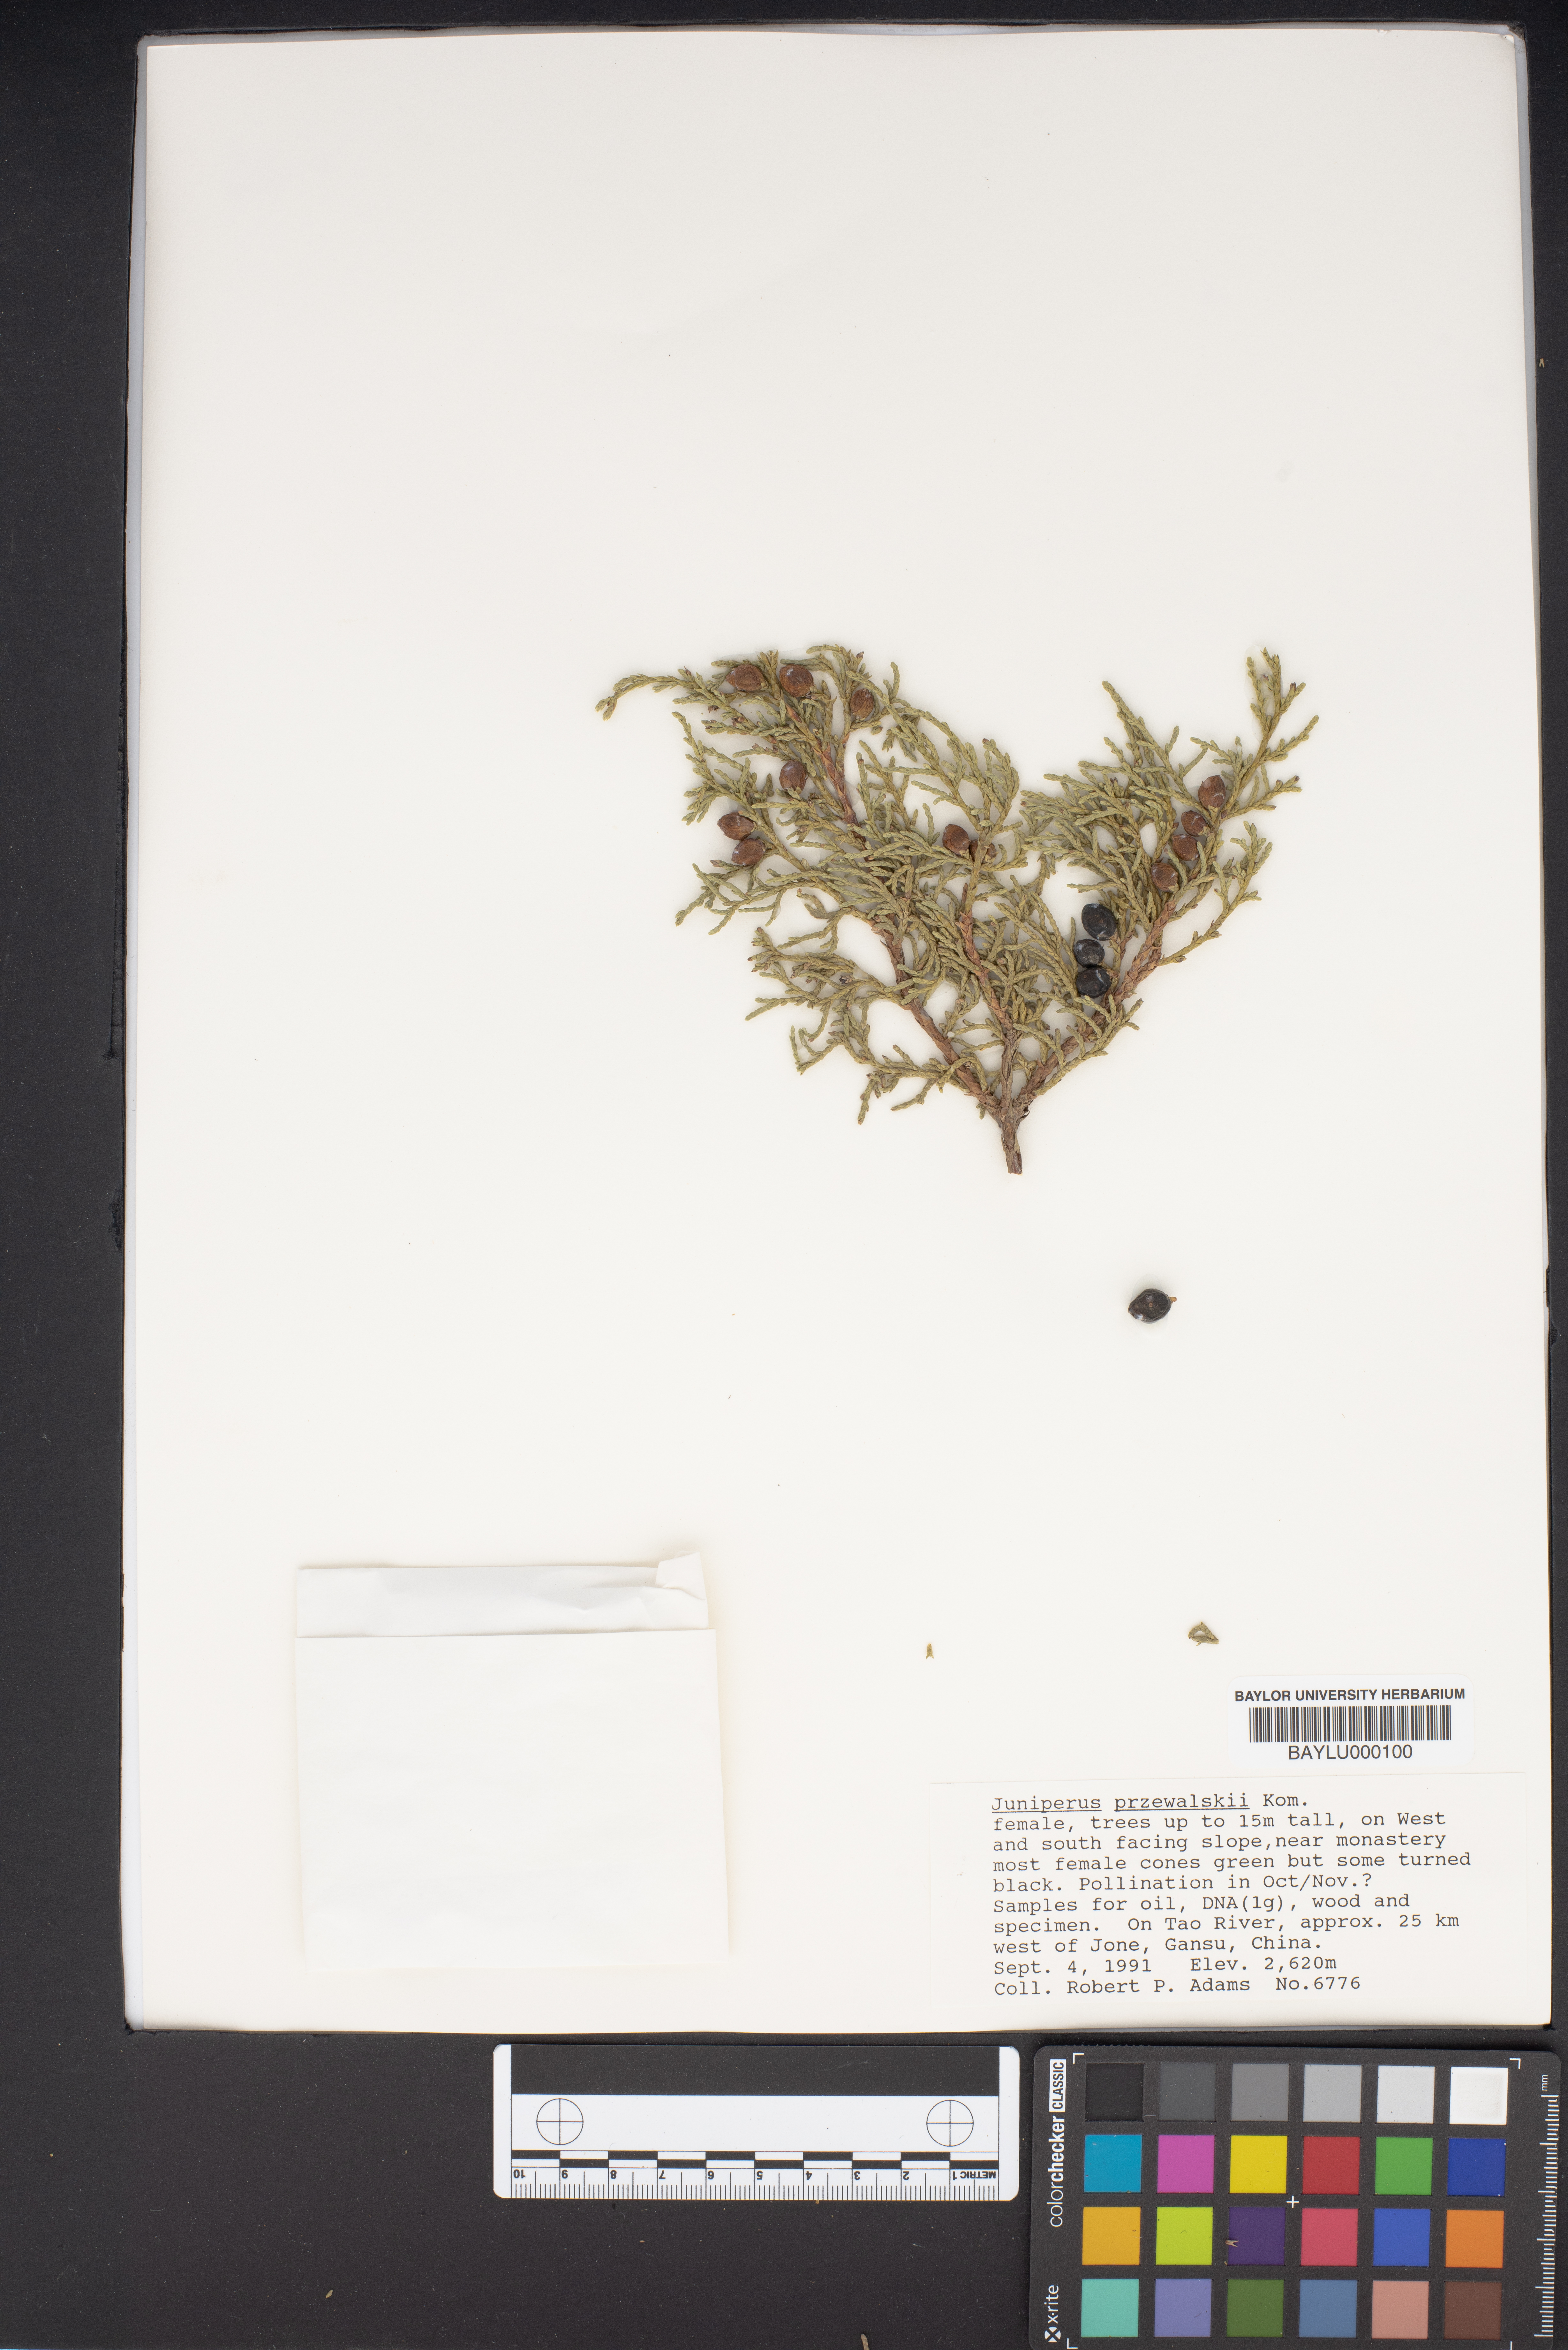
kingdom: Plantae
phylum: Tracheophyta
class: Pinopsida
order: Pinales
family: Cupressaceae
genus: Juniperus
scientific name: Juniperus przewalskii
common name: Przewalsi juniper
